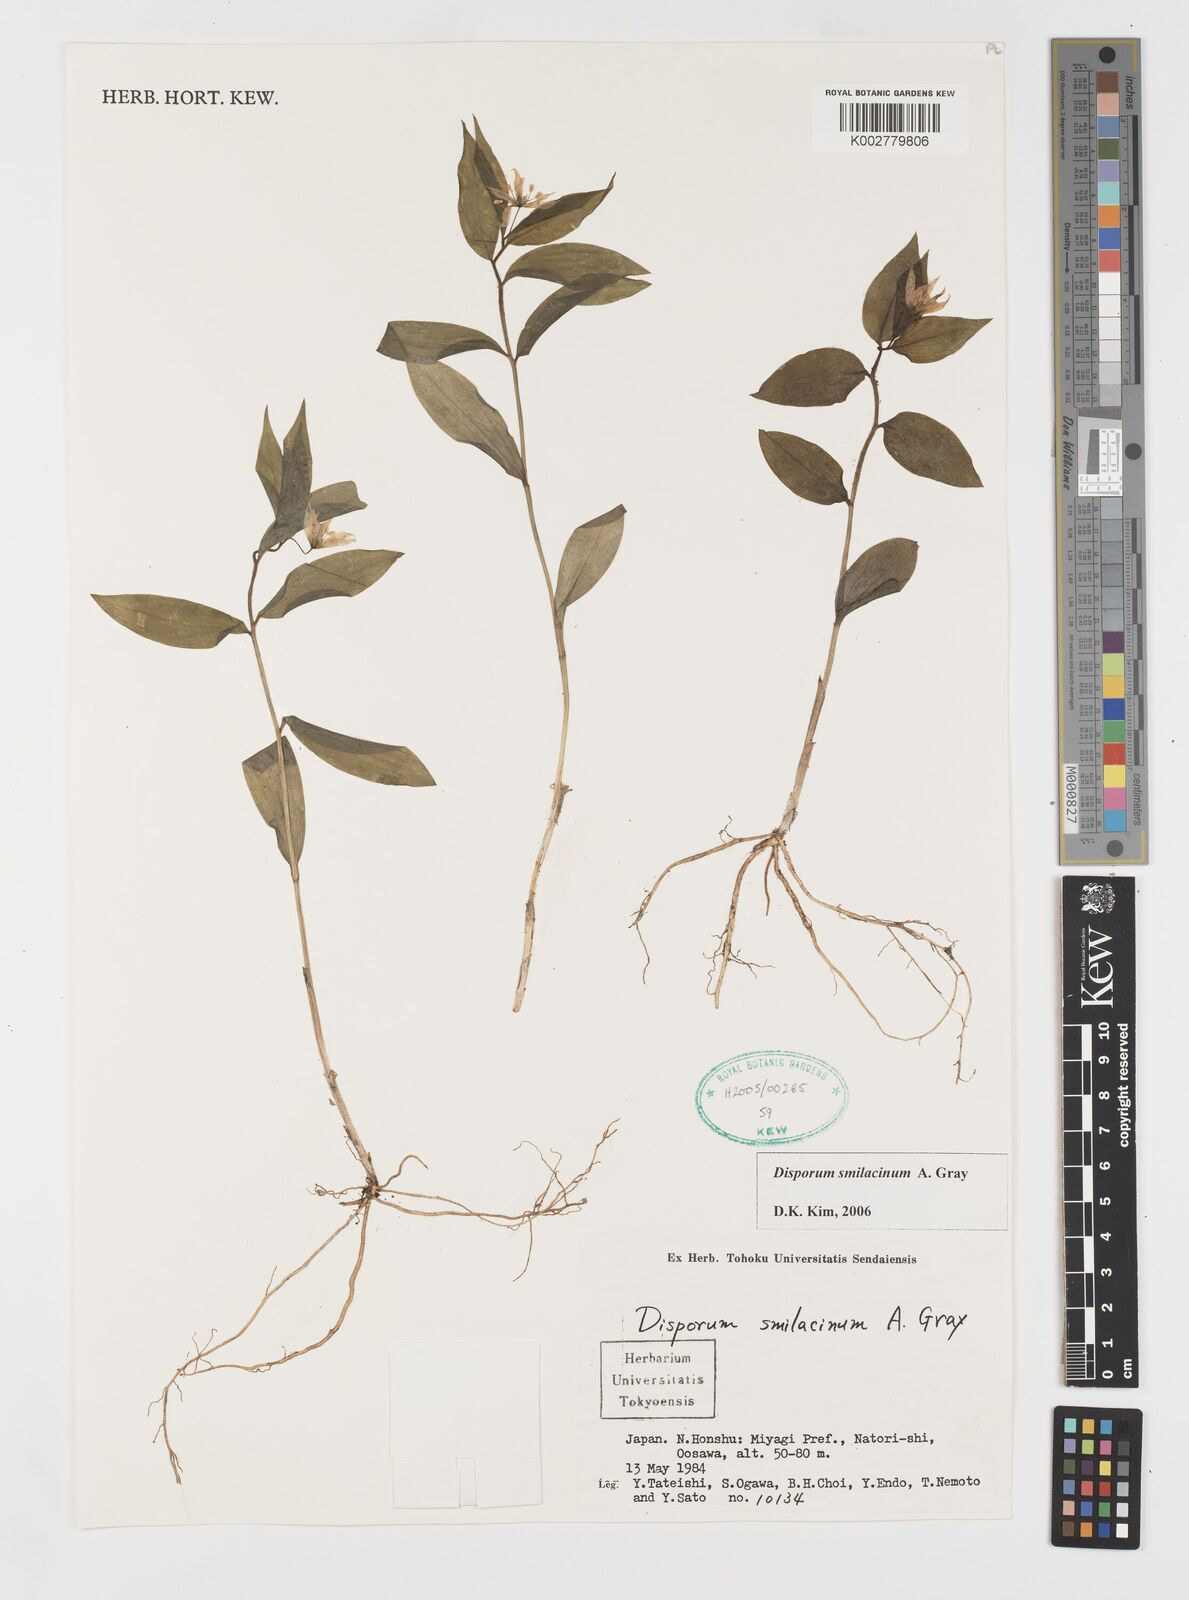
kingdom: Plantae
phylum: Tracheophyta
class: Liliopsida
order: Liliales
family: Colchicaceae
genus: Disporum
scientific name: Disporum smilacinum
